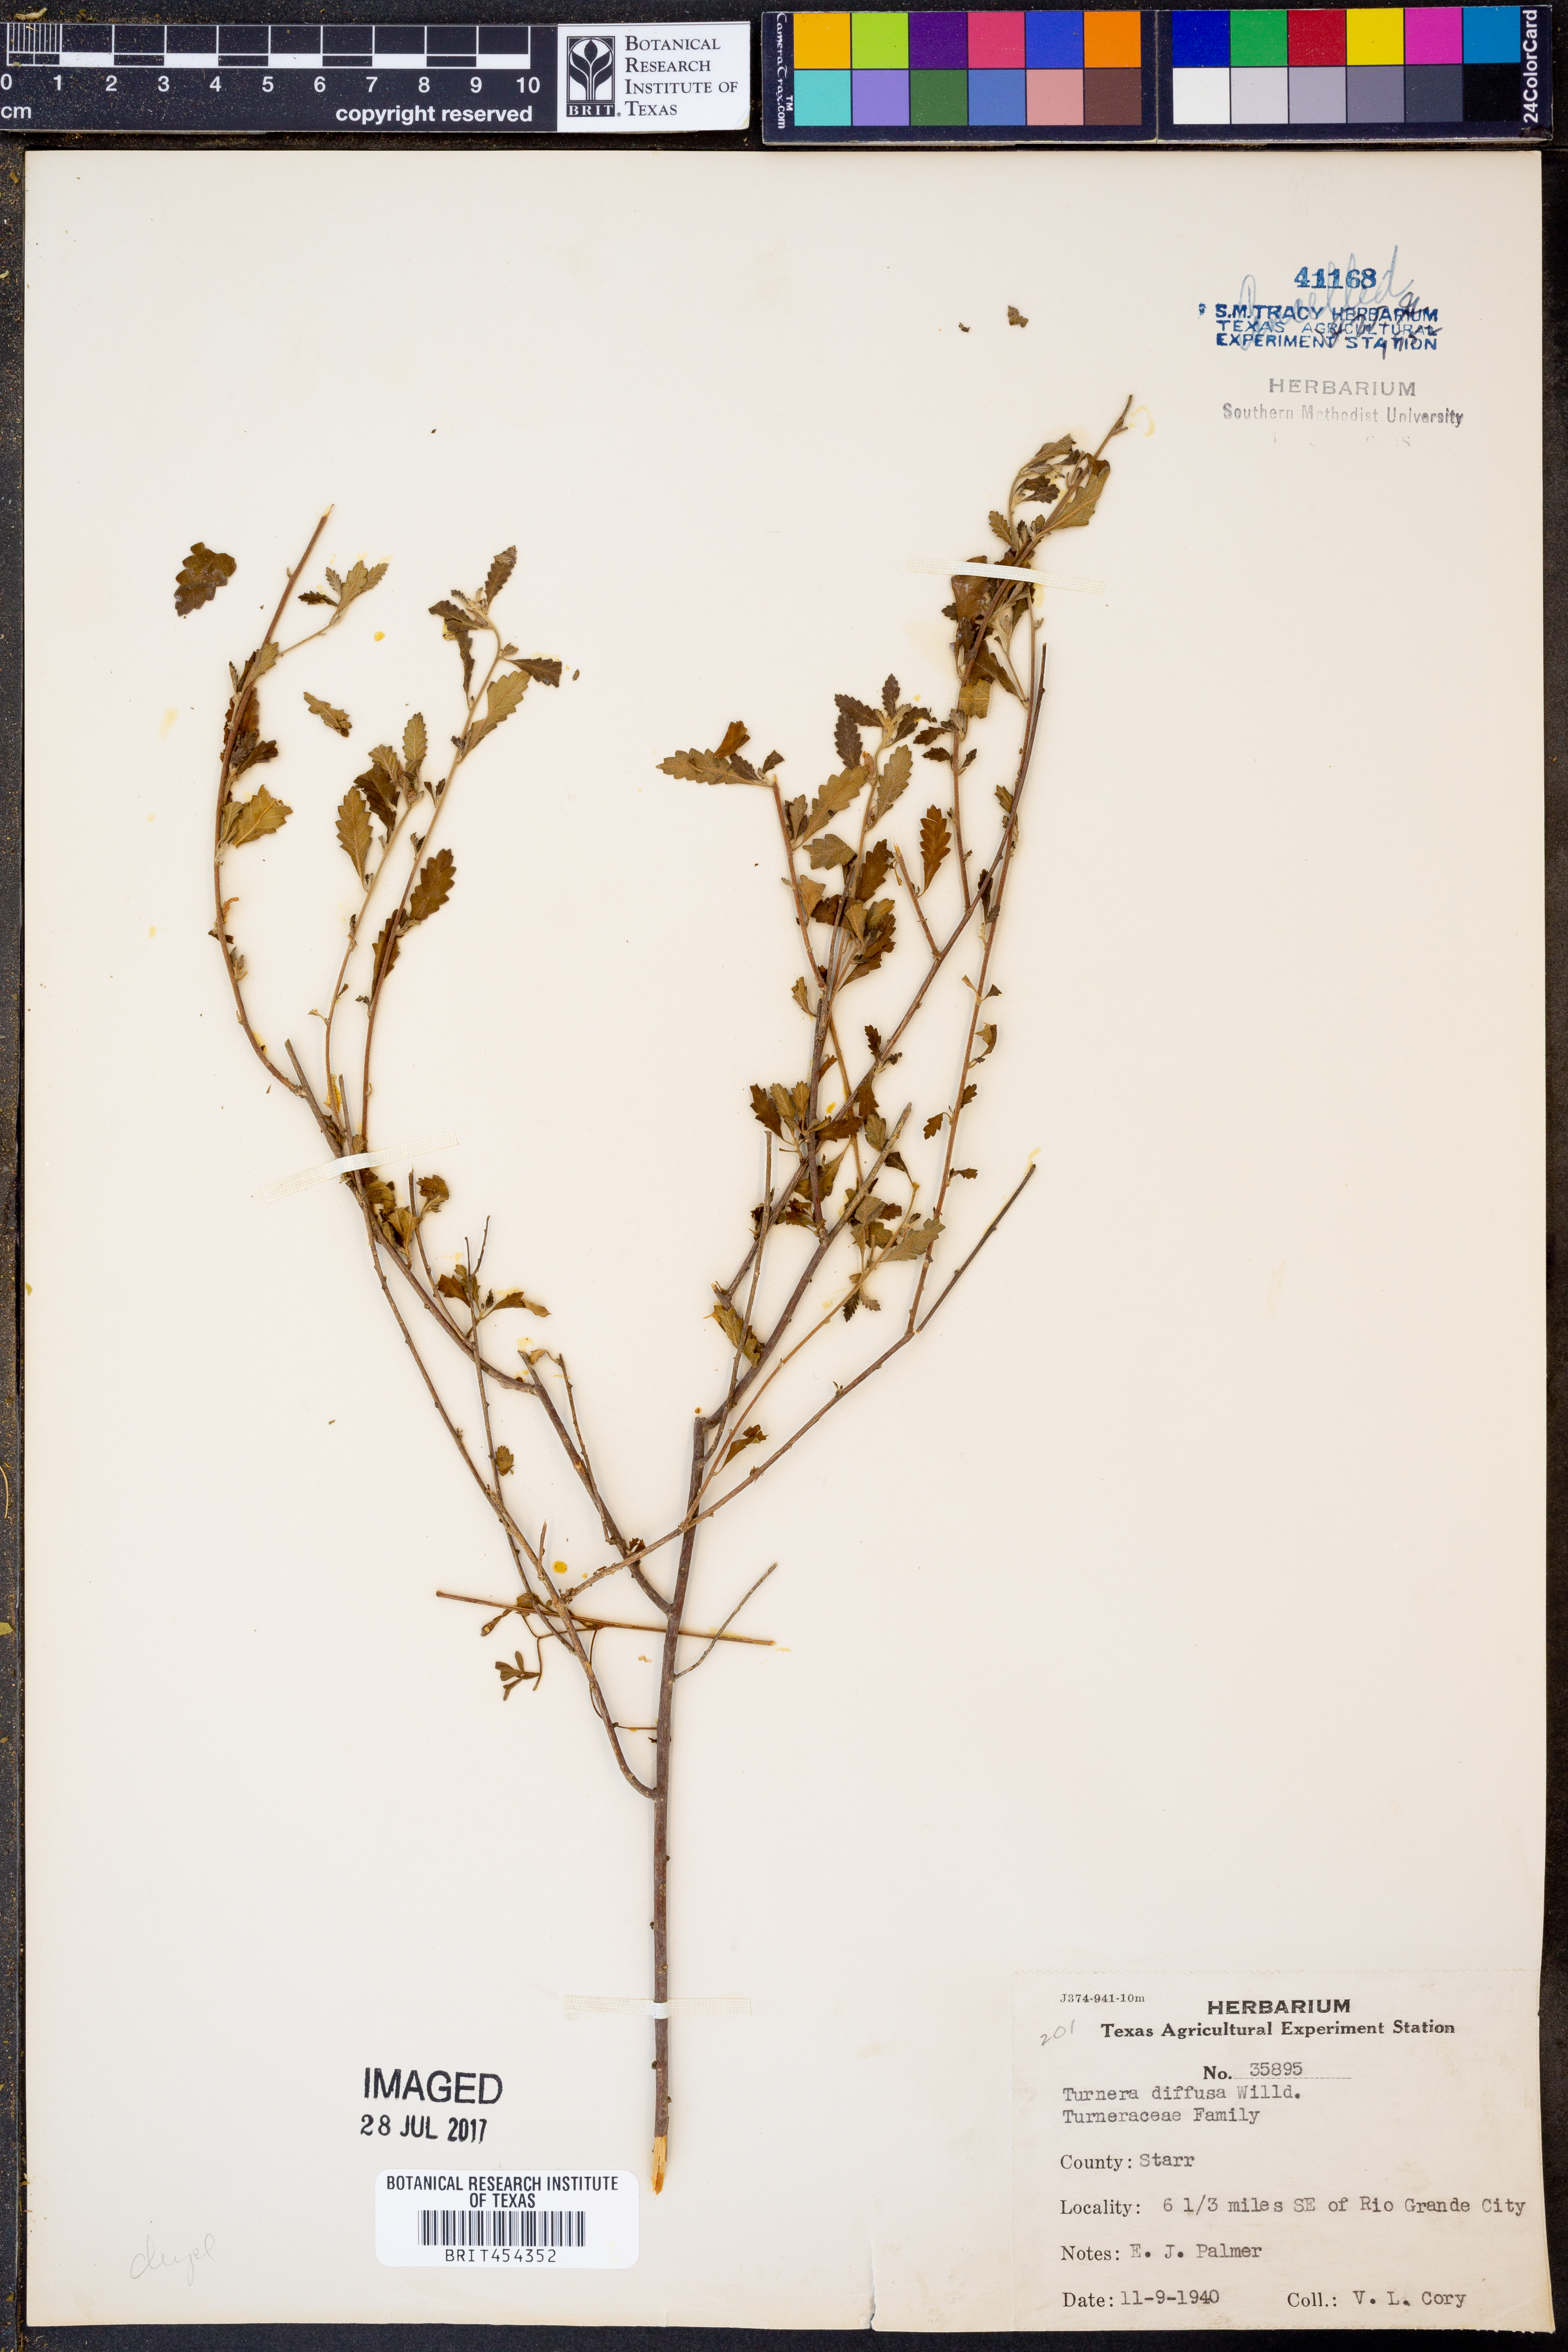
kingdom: Plantae
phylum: Tracheophyta
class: Magnoliopsida
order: Malpighiales
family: Turneraceae
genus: Turnera
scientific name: Turnera diffusa
